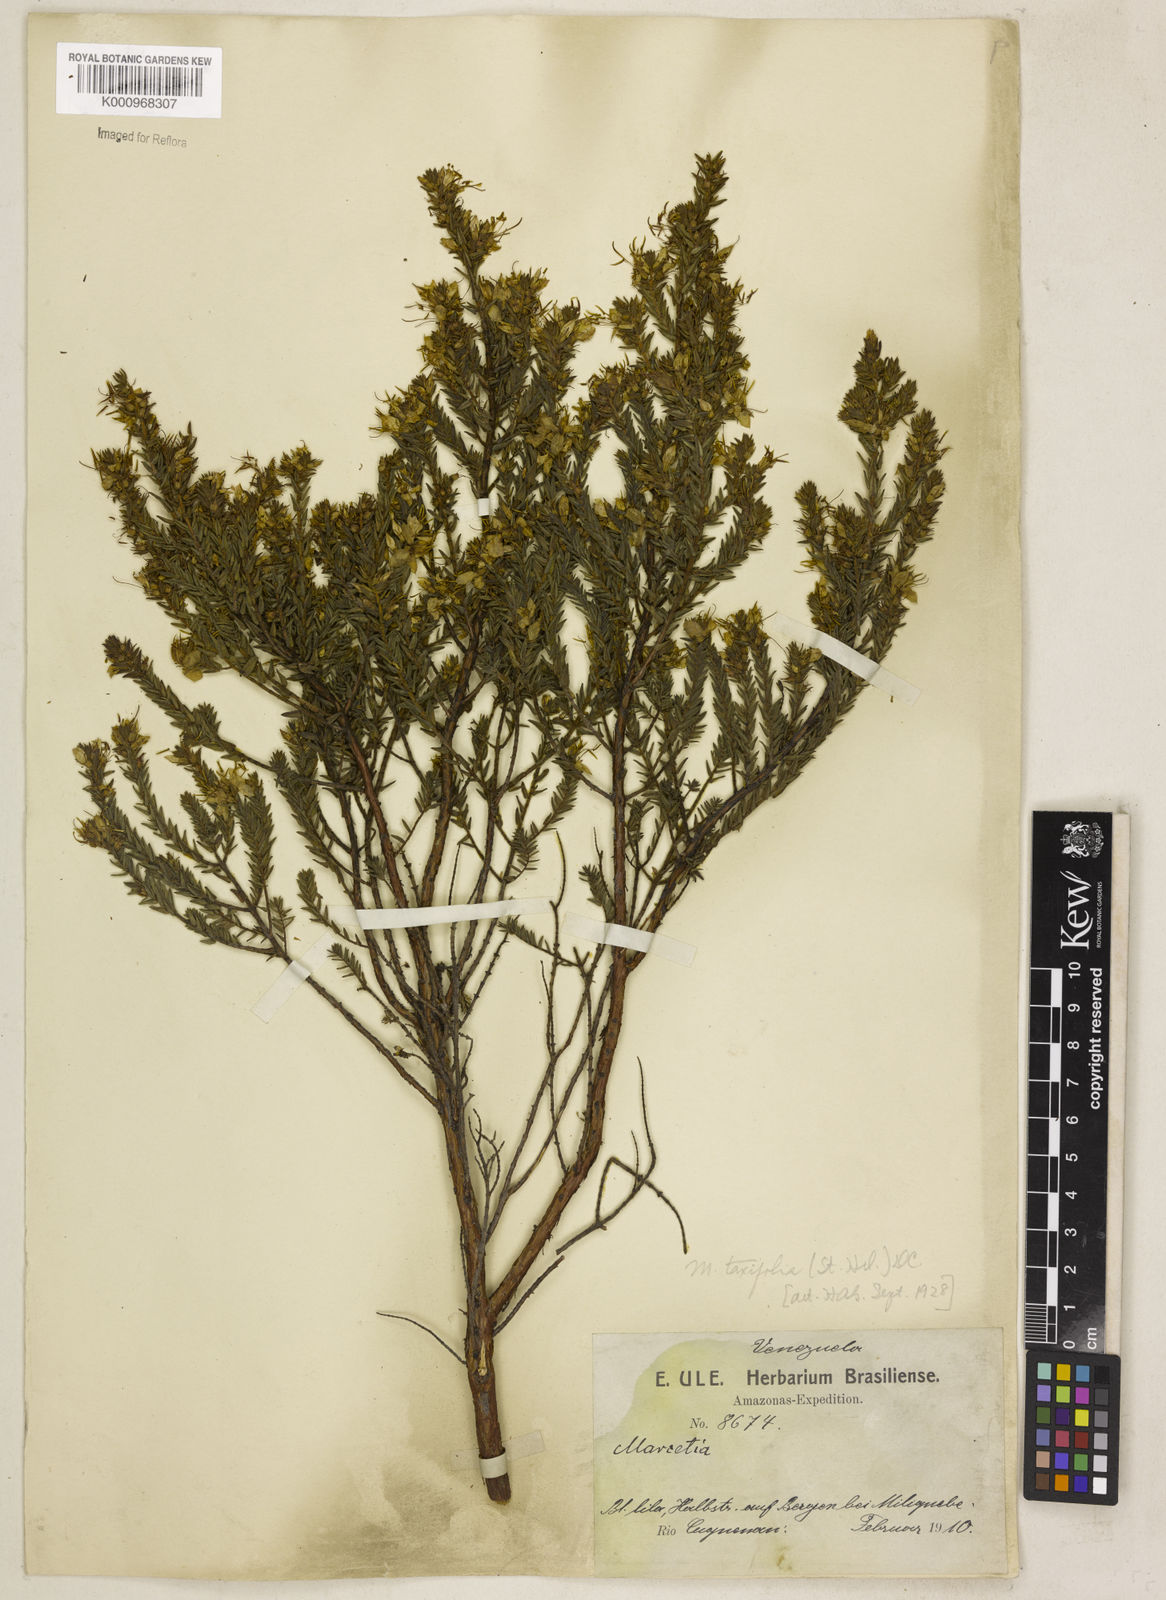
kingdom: Plantae
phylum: Tracheophyta
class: Magnoliopsida
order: Myrtales
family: Melastomataceae
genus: Marcetia
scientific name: Marcetia taxifolia
